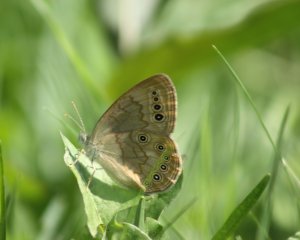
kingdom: Animalia
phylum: Arthropoda
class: Insecta
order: Lepidoptera
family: Nymphalidae
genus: Lethe
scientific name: Lethe eurydice
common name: Eyed Brown
